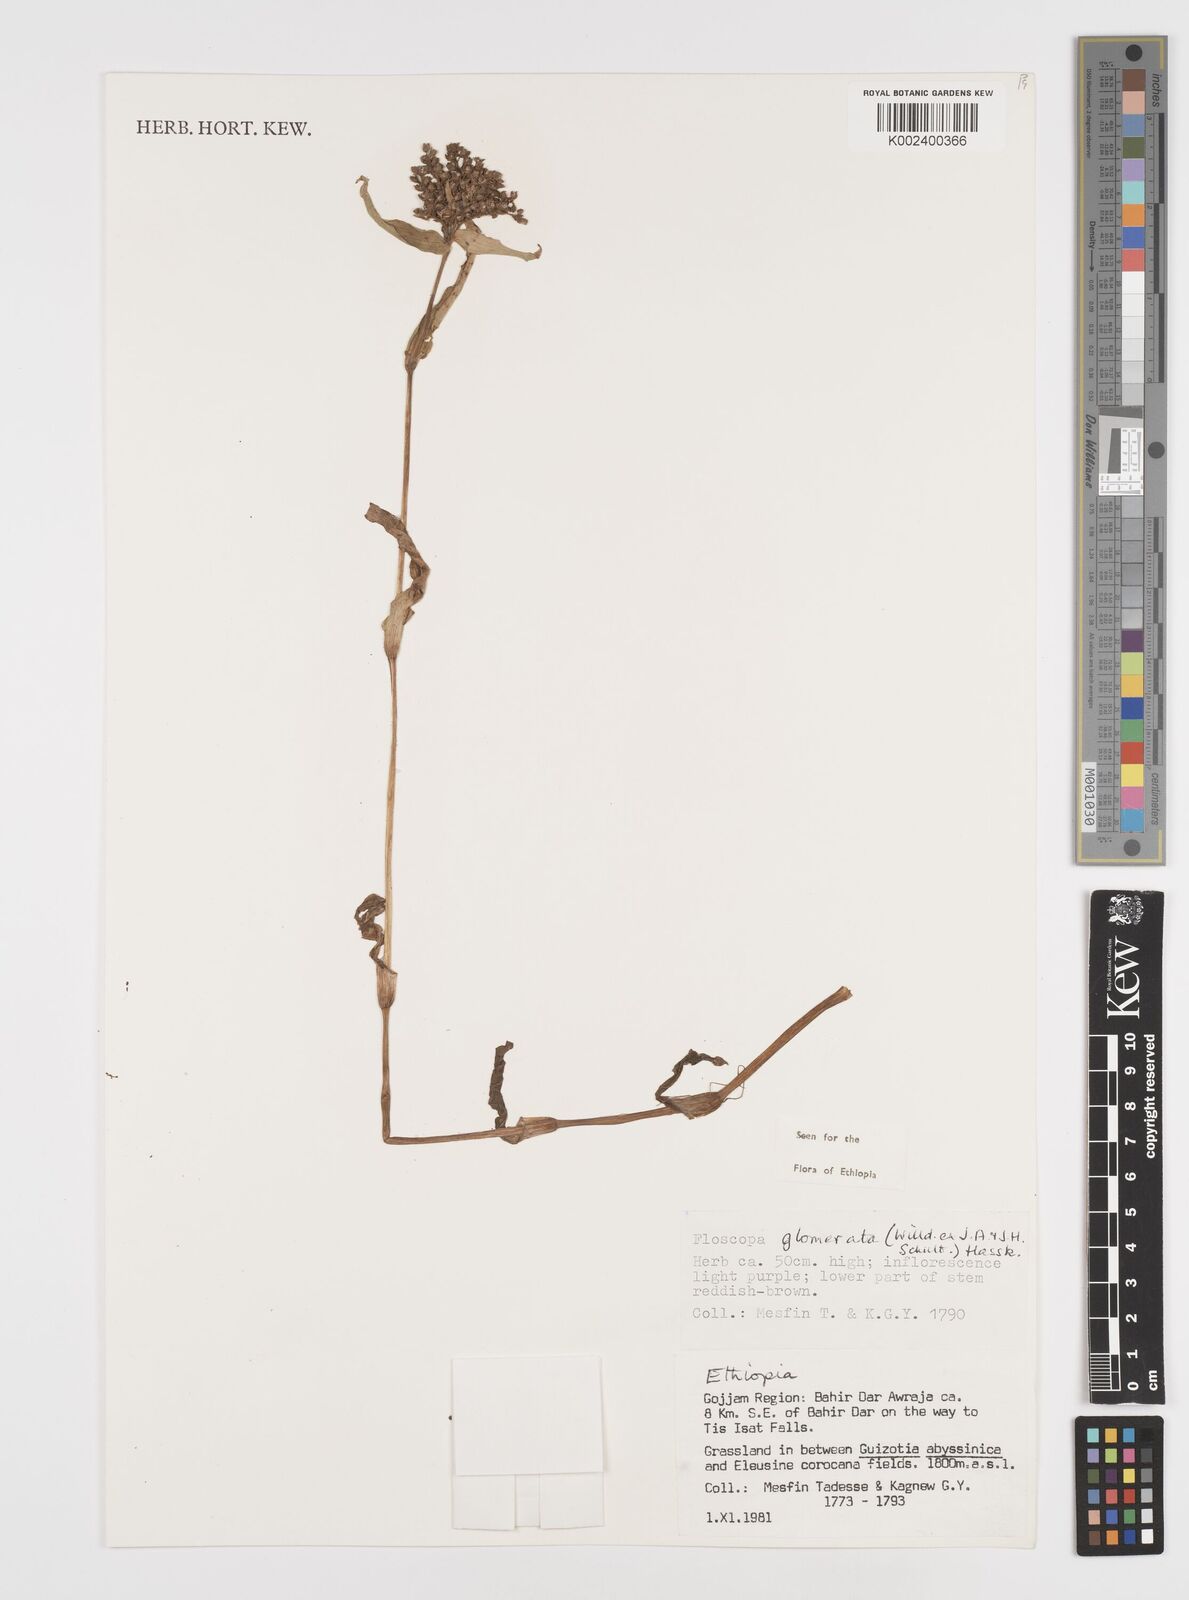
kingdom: Plantae
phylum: Tracheophyta
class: Liliopsida
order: Commelinales
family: Commelinaceae
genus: Floscopa
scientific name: Floscopa glomerata
